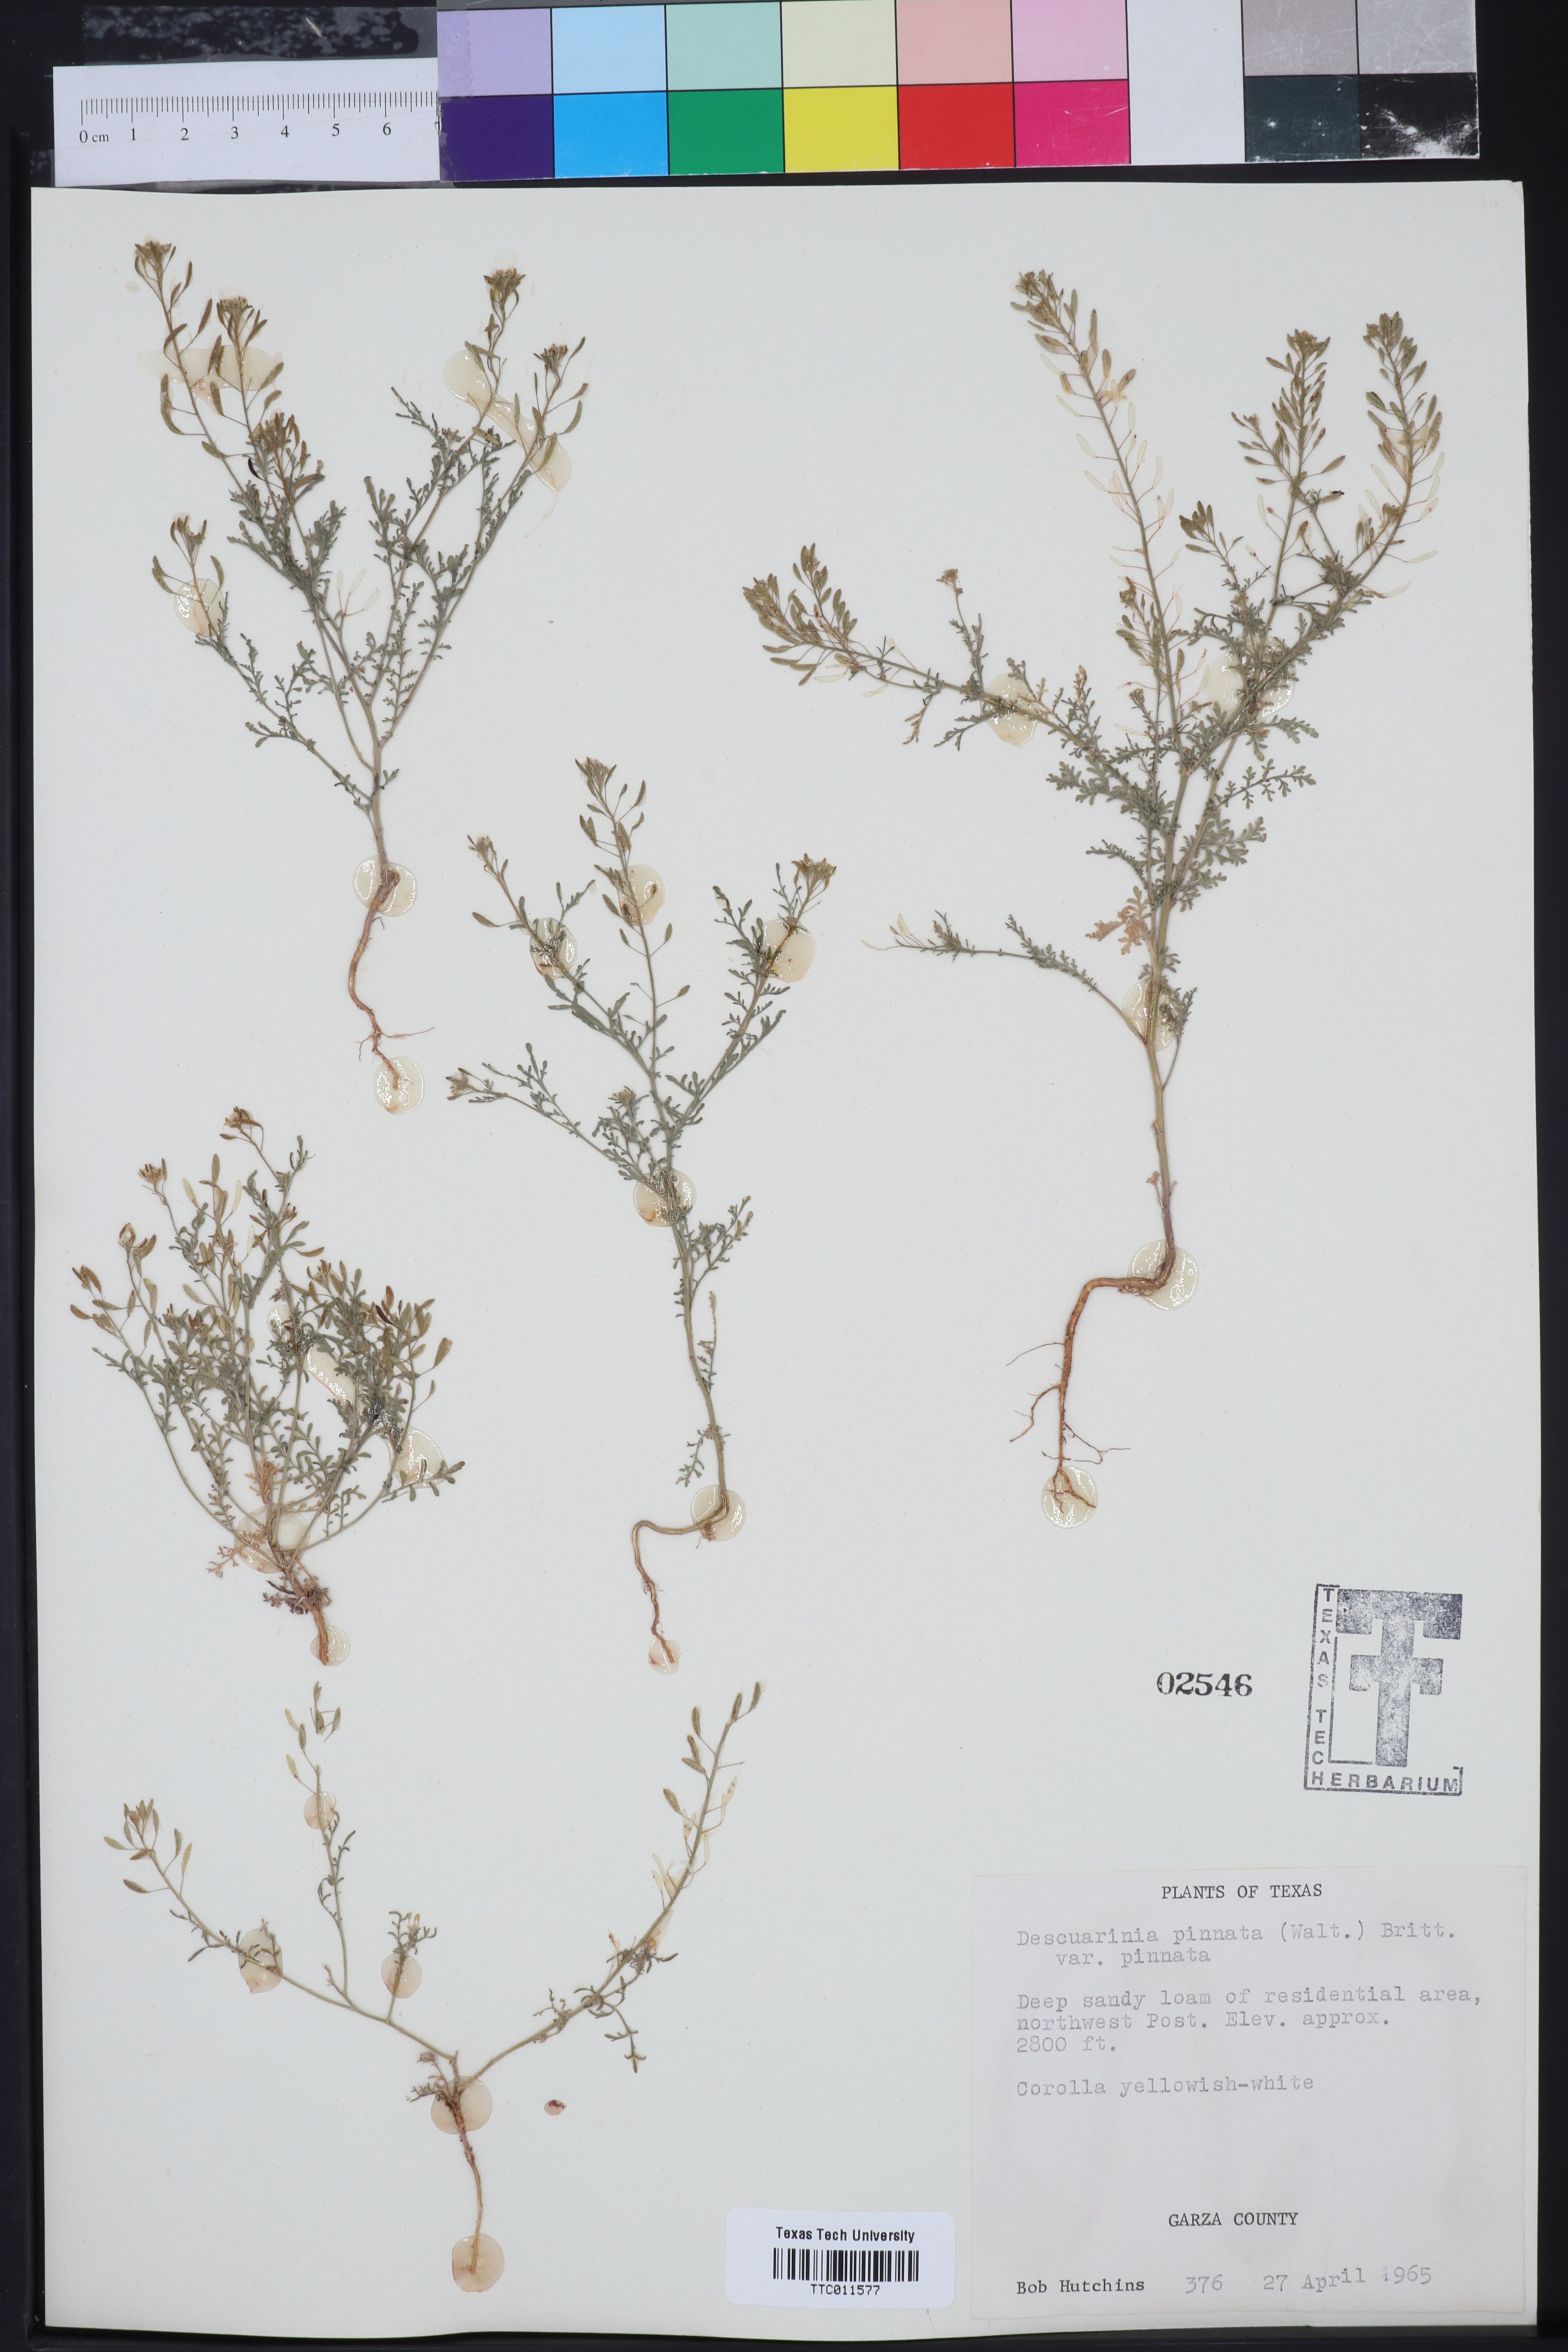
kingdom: Plantae
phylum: Tracheophyta
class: Magnoliopsida
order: Brassicales
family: Brassicaceae
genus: Descurainia
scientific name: Descurainia pinnata
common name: Western tansy mustard
